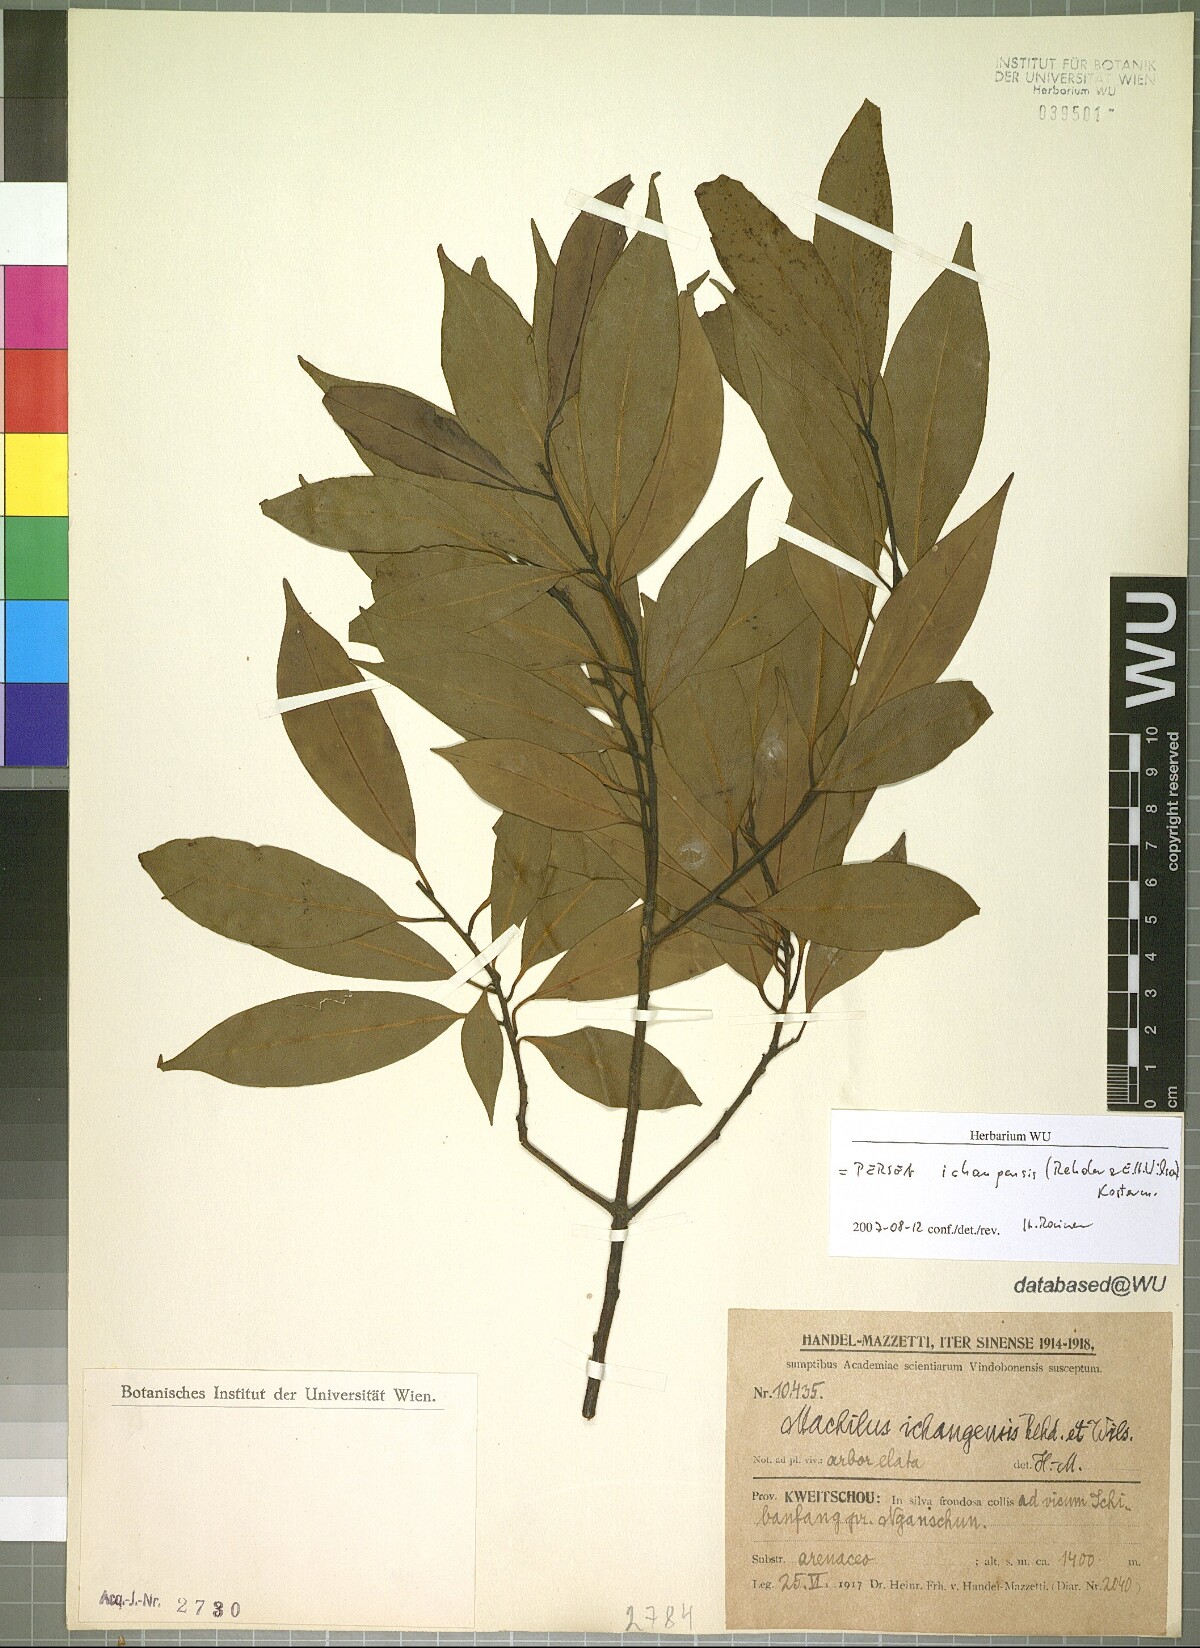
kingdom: Plantae
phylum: Tracheophyta
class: Magnoliopsida
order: Laurales
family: Lauraceae
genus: Machilus
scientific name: Machilus ichangensis
